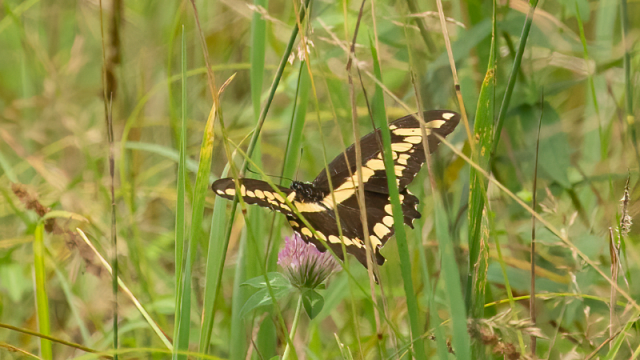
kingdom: Animalia
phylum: Arthropoda
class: Insecta
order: Lepidoptera
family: Papilionidae
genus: Papilio
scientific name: Papilio cresphontes
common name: Eastern Giant Swallowtail
